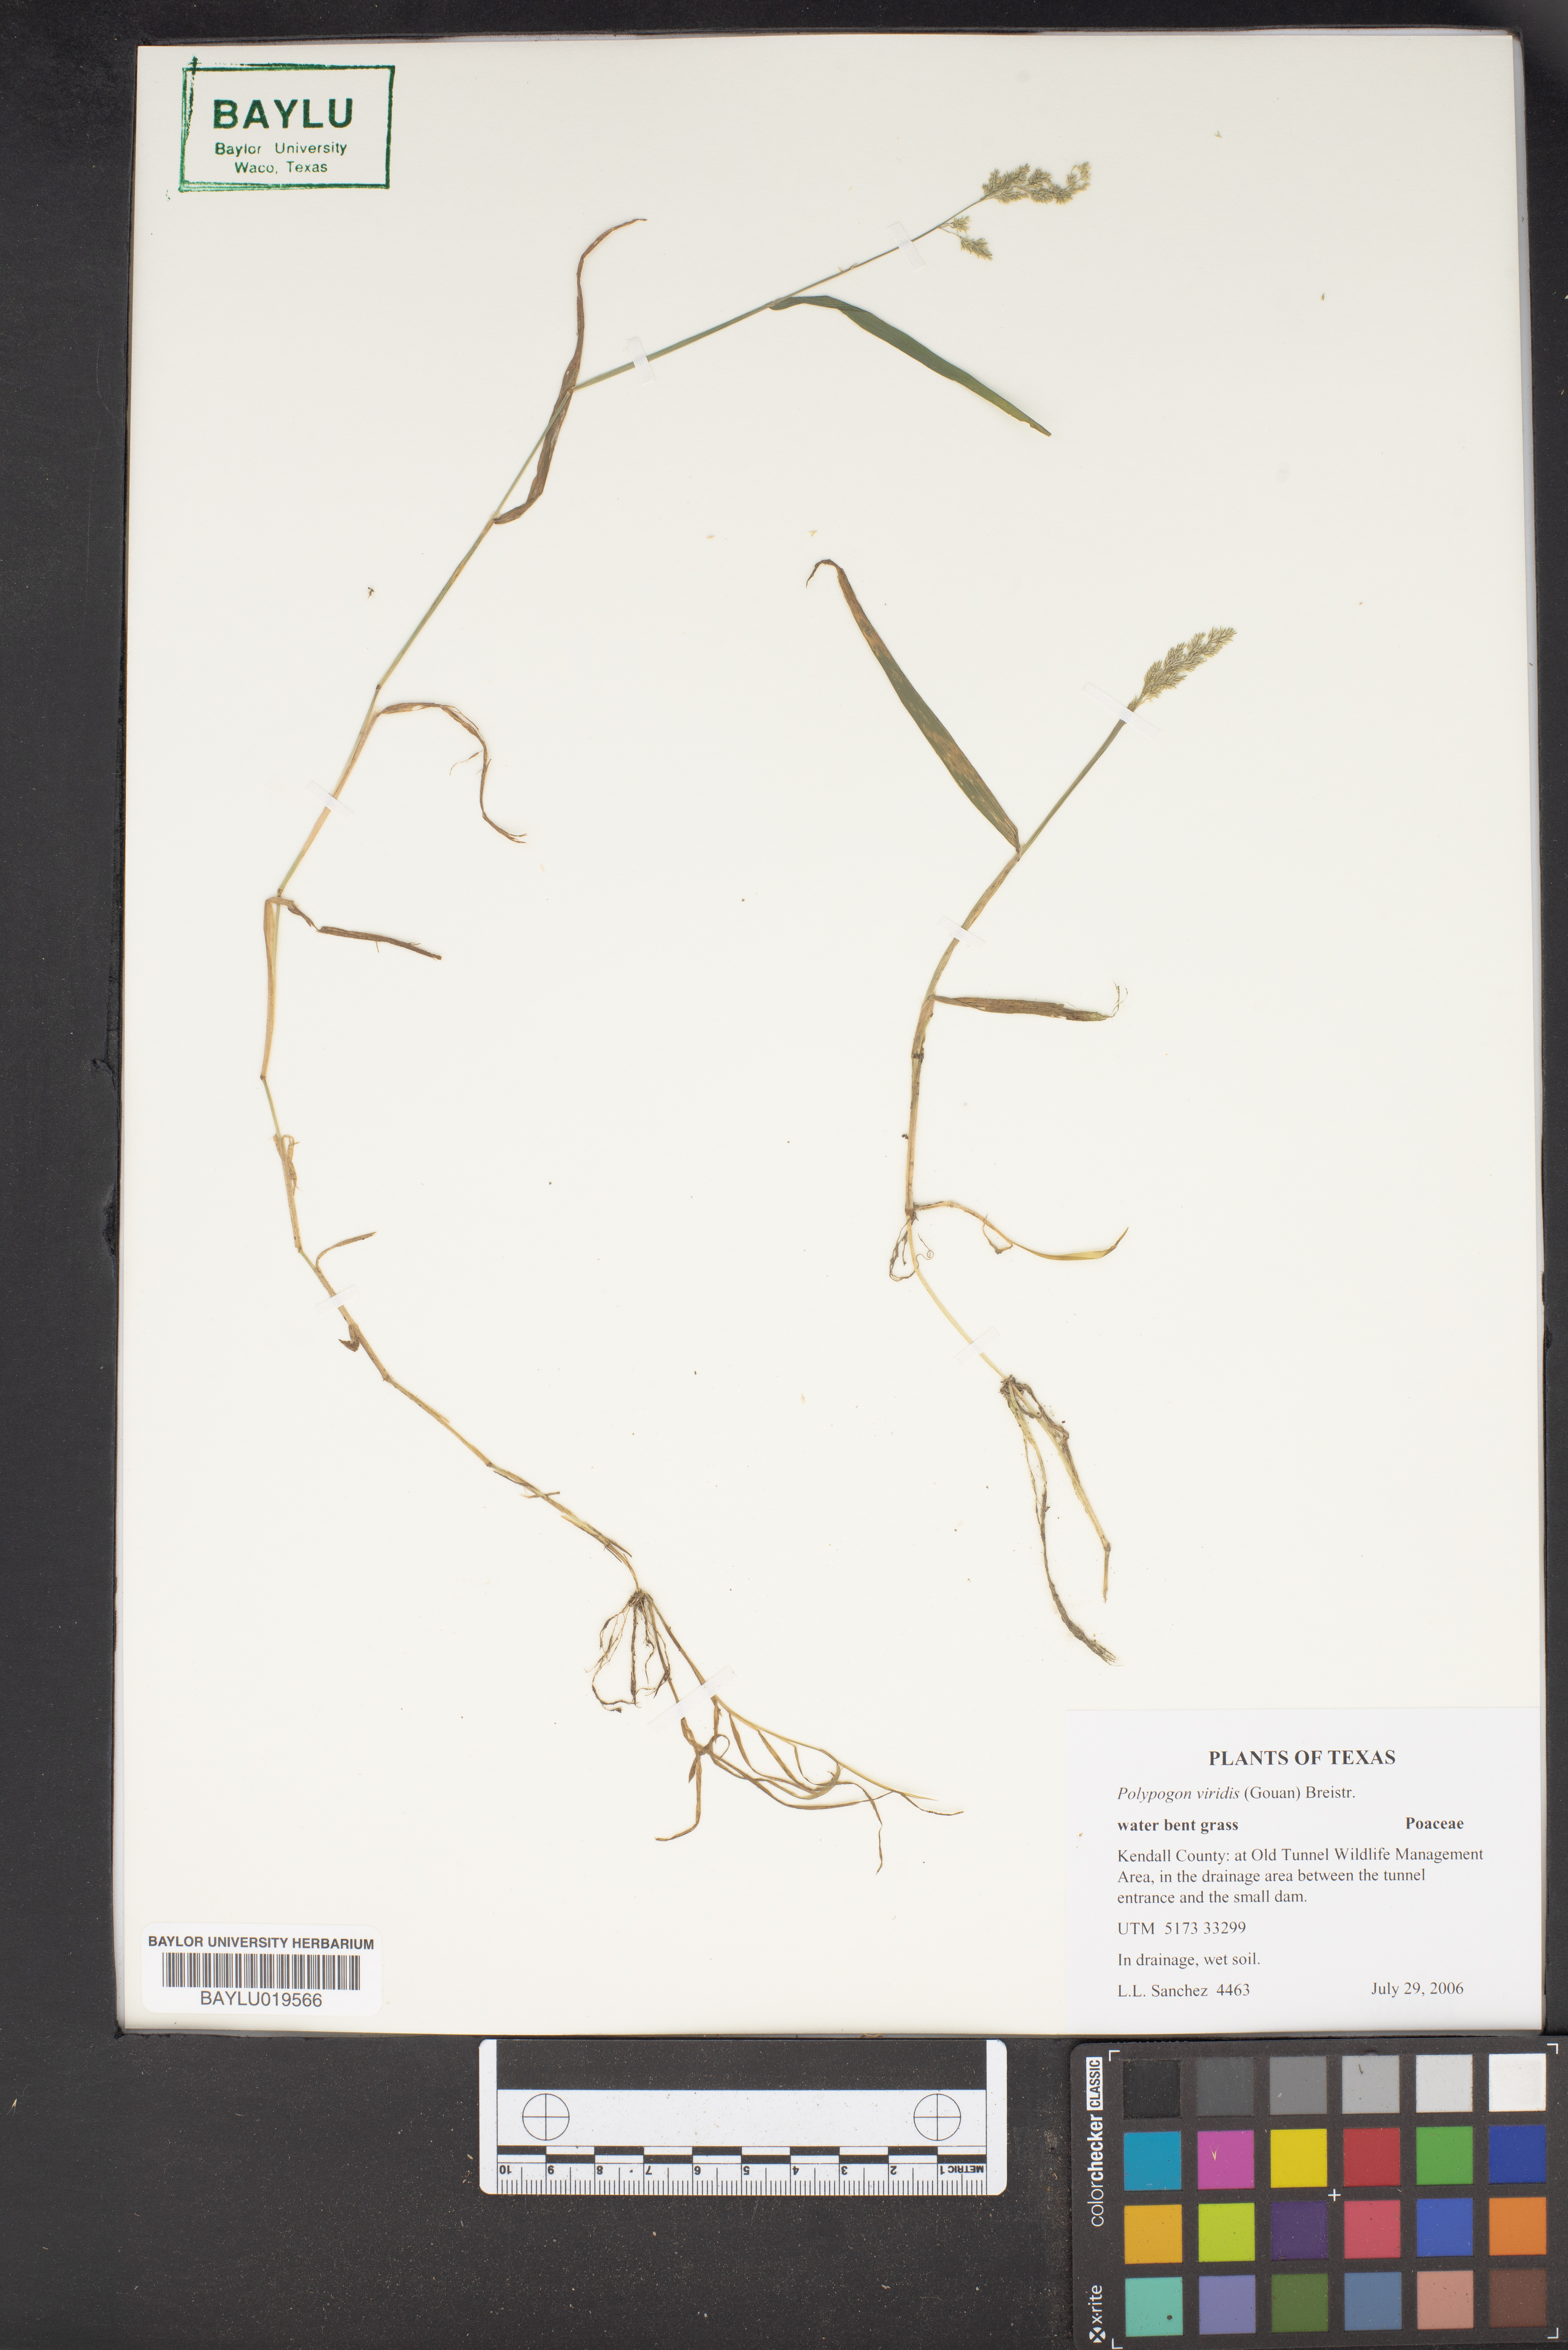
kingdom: Plantae
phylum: Tracheophyta
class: Liliopsida
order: Poales
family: Poaceae
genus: Polypogon
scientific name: Polypogon viridis
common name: Water bent
